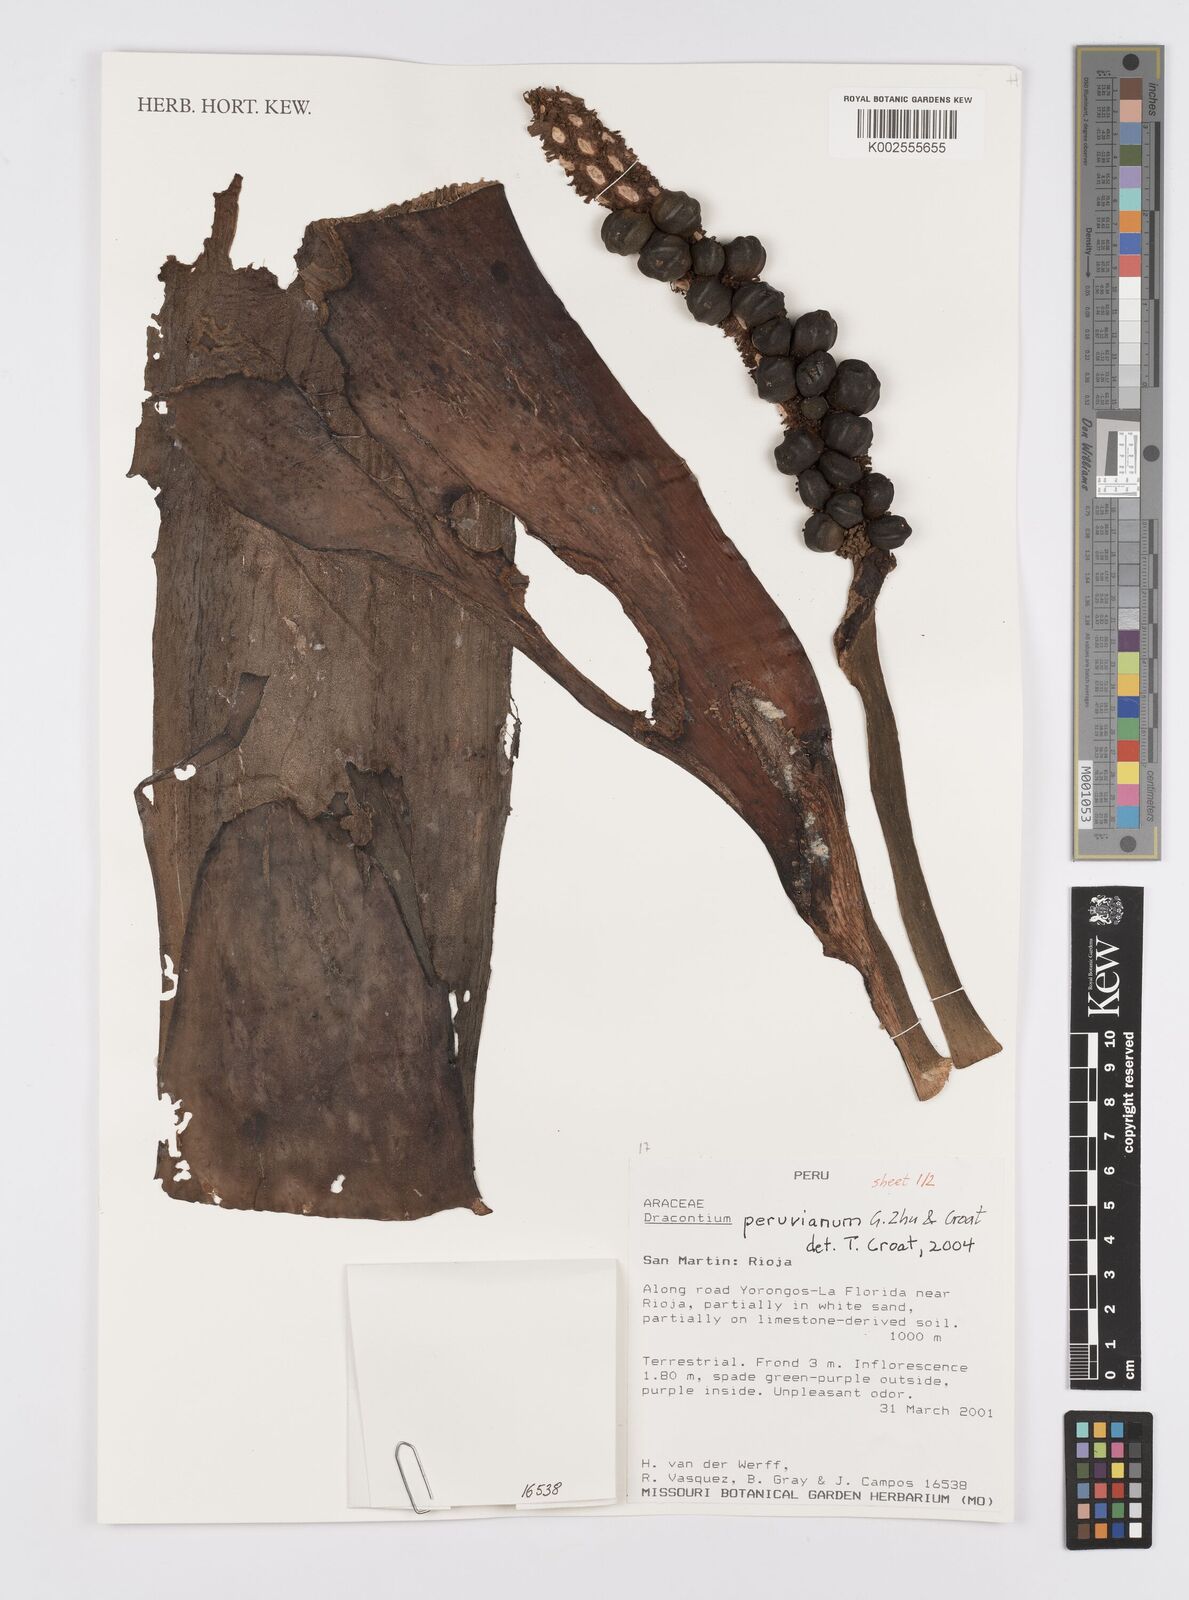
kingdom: Plantae
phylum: Tracheophyta
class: Liliopsida
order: Alismatales
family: Araceae
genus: Dracontium
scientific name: Dracontium peruvianum
